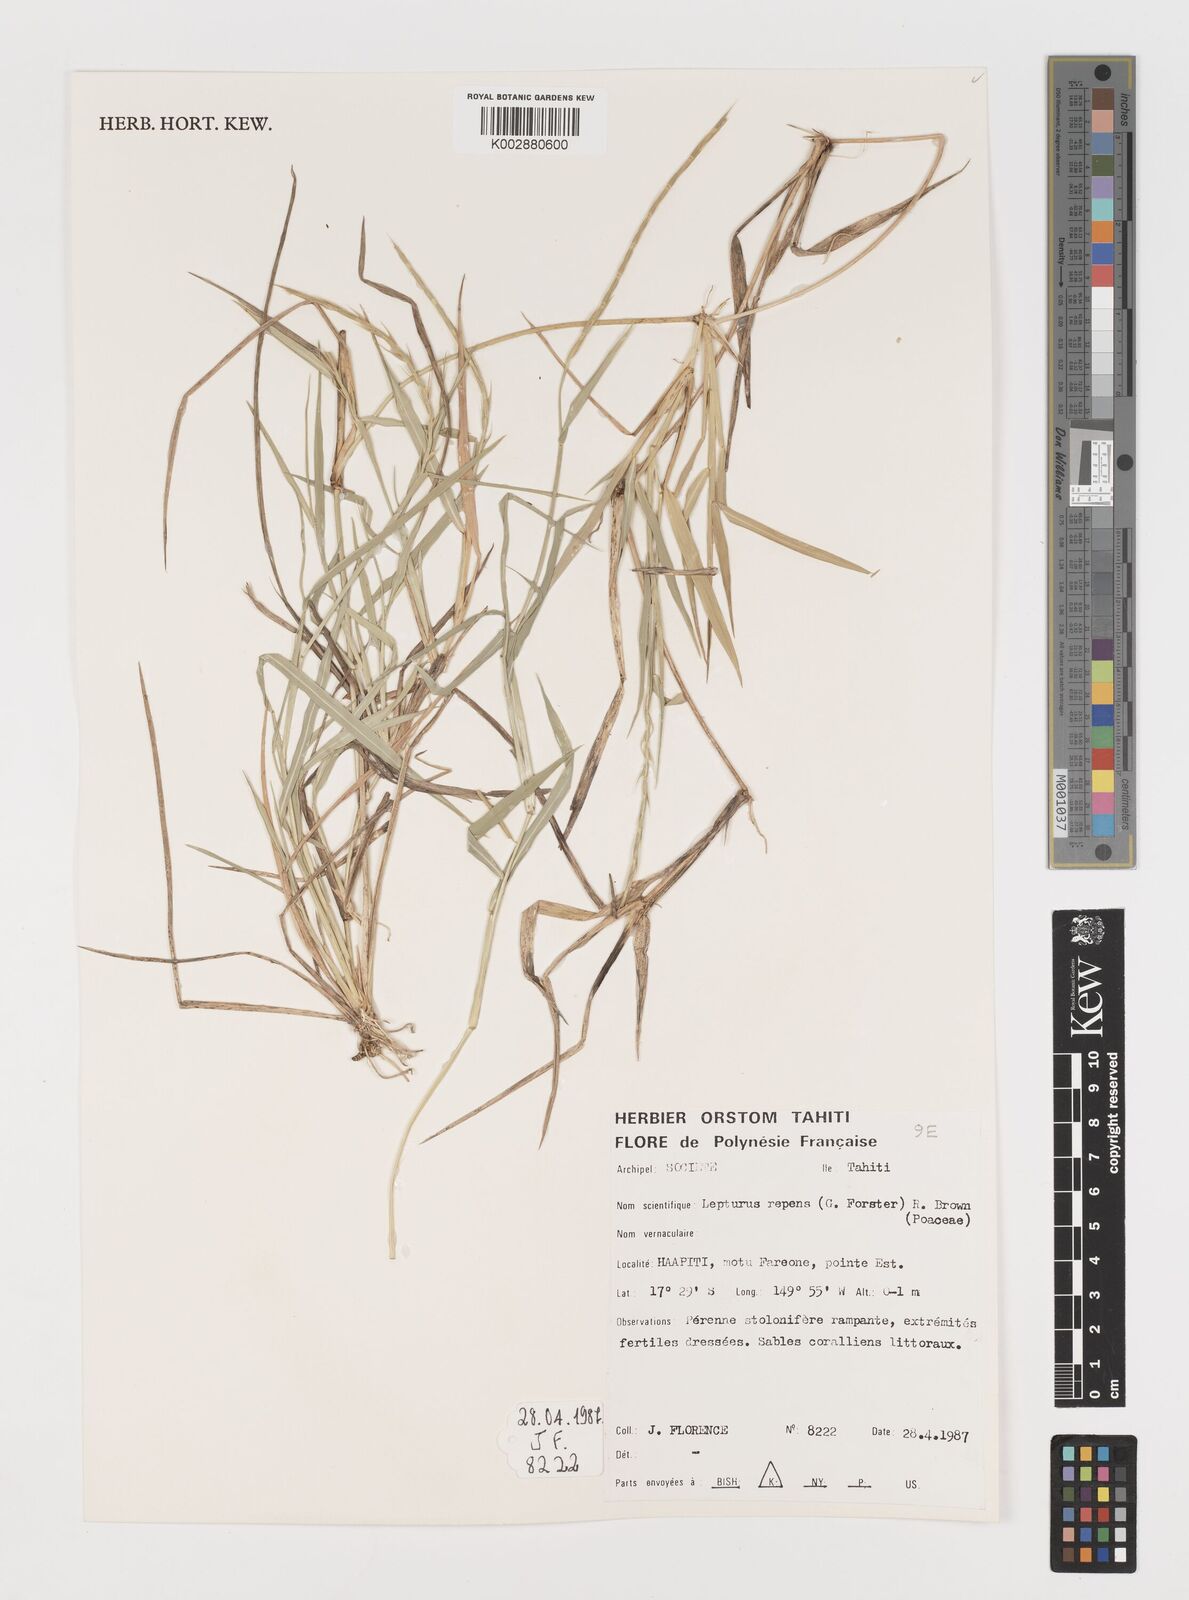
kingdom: Plantae
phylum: Tracheophyta
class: Liliopsida
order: Poales
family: Poaceae
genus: Lepturus
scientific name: Lepturus repens
